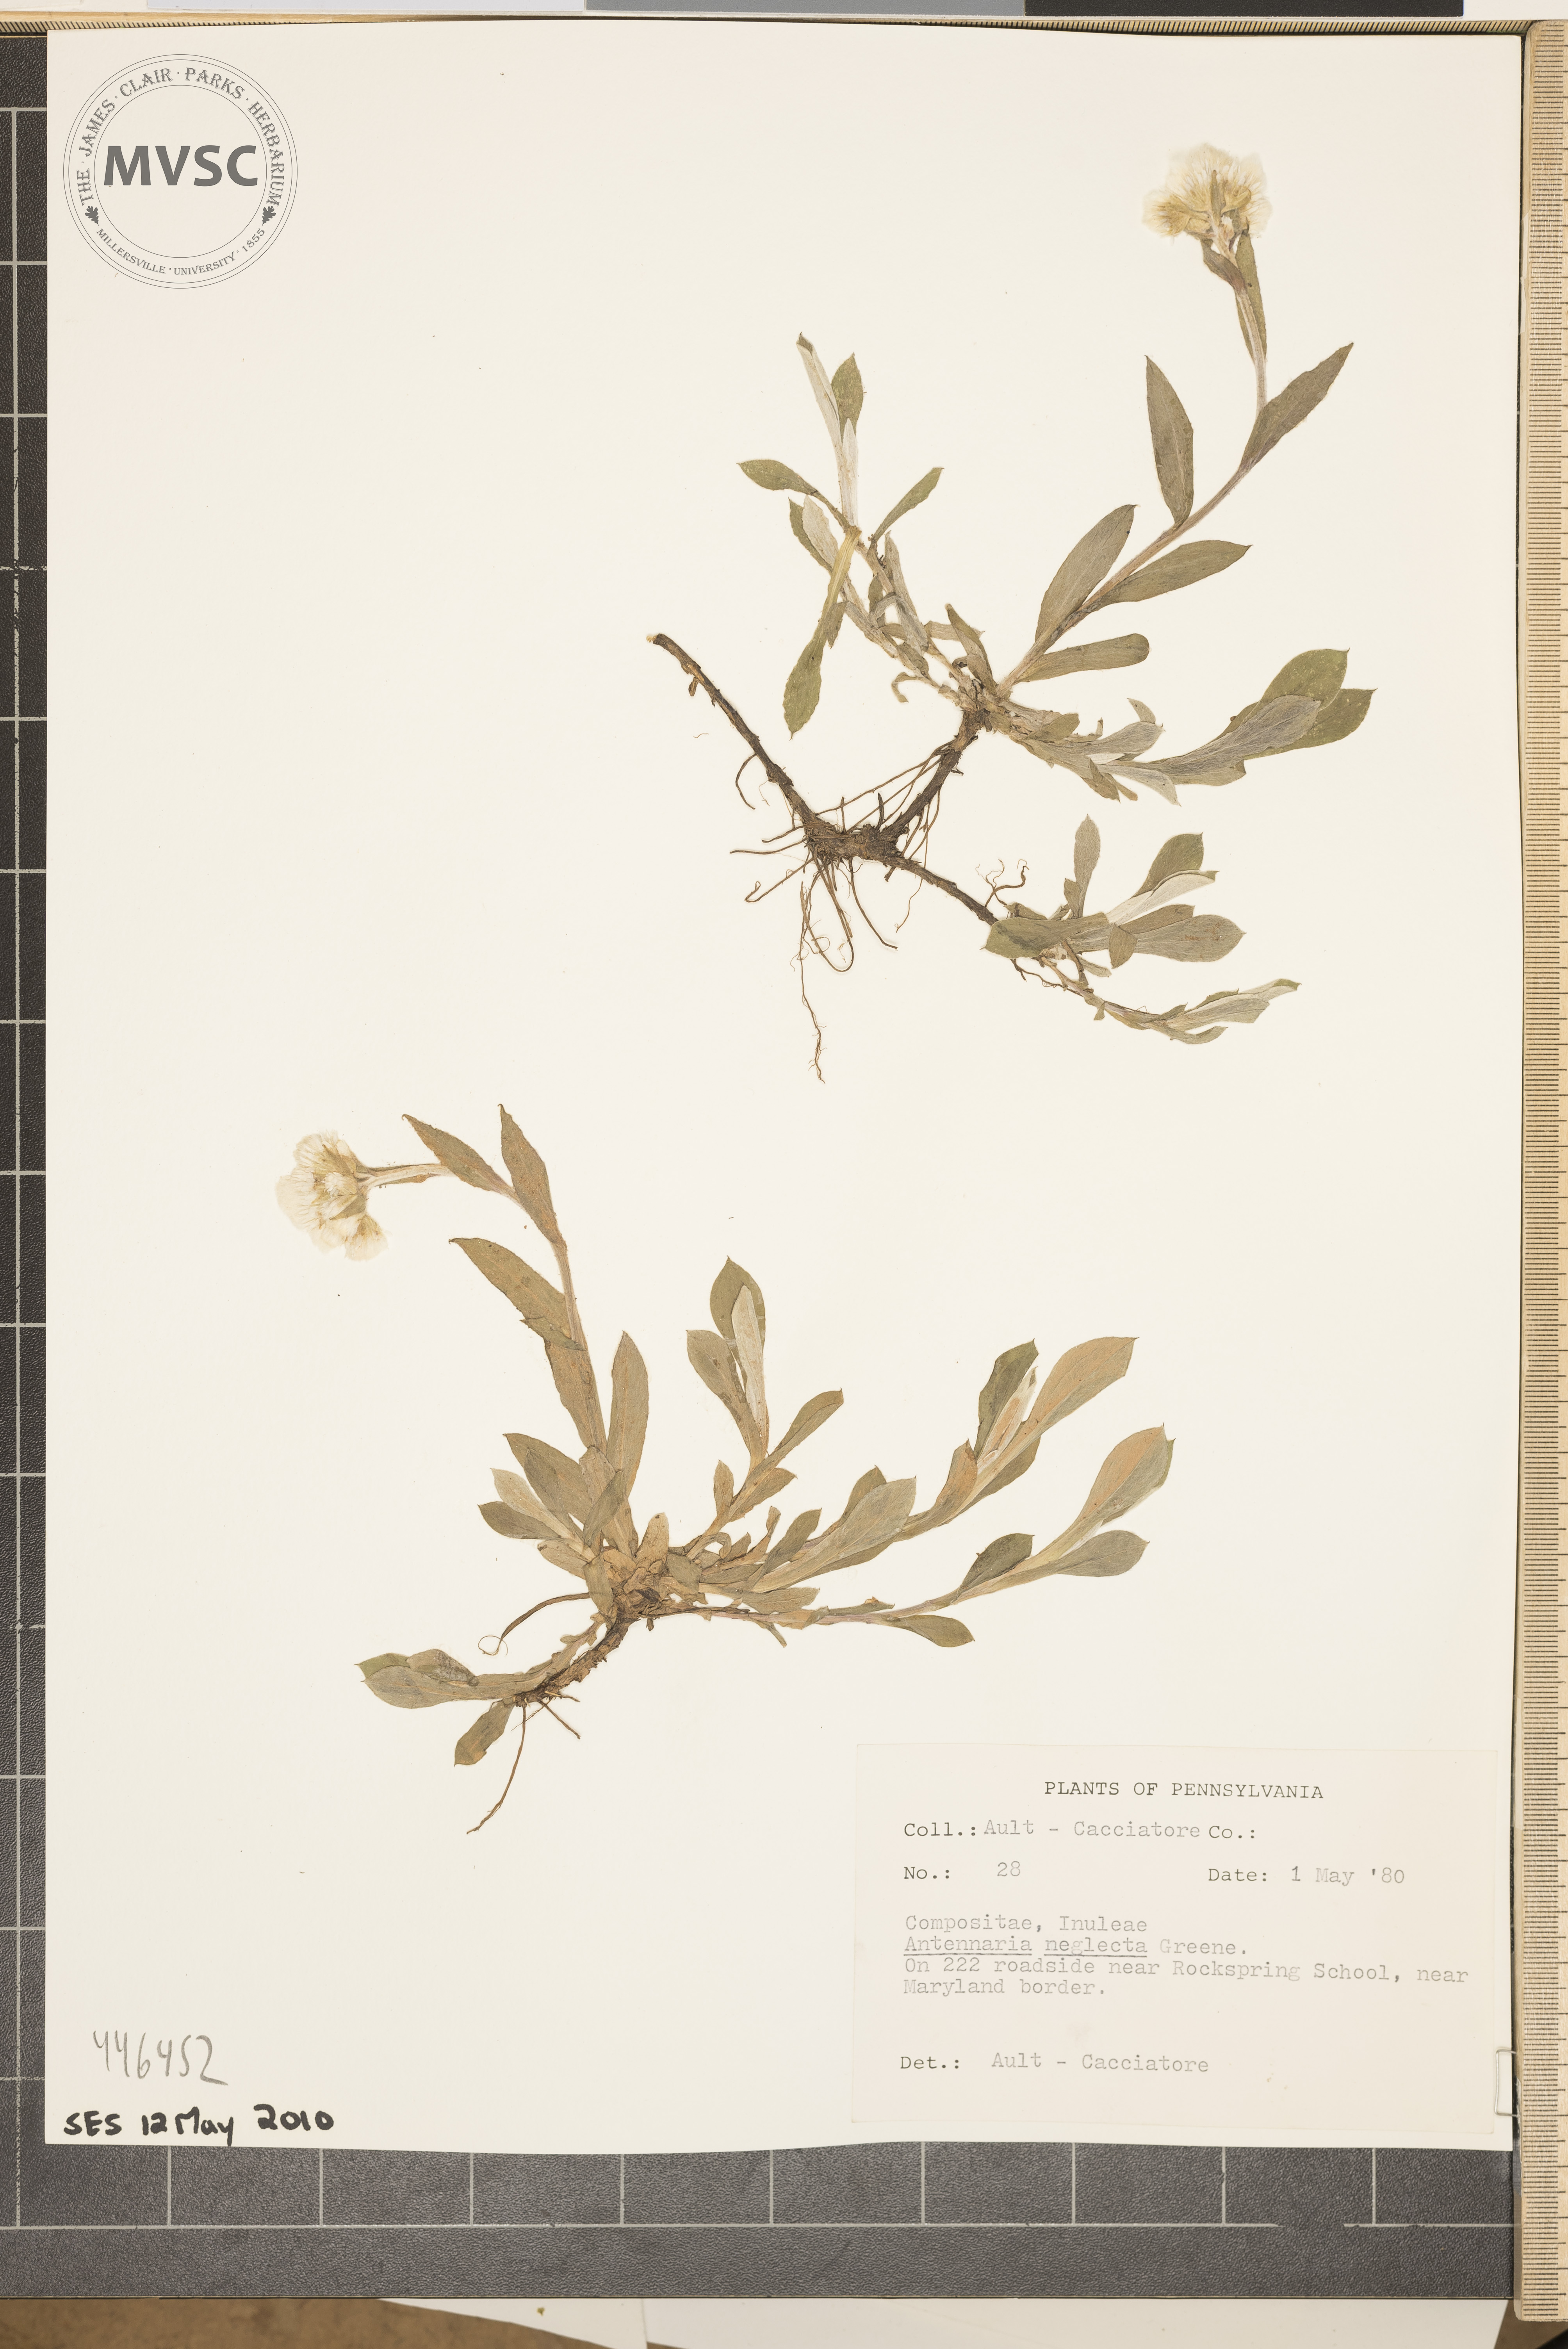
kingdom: Plantae
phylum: Tracheophyta
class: Magnoliopsida
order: Asterales
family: Asteraceae
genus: Antennaria
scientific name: Antennaria neglecta
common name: Field pussytoes
